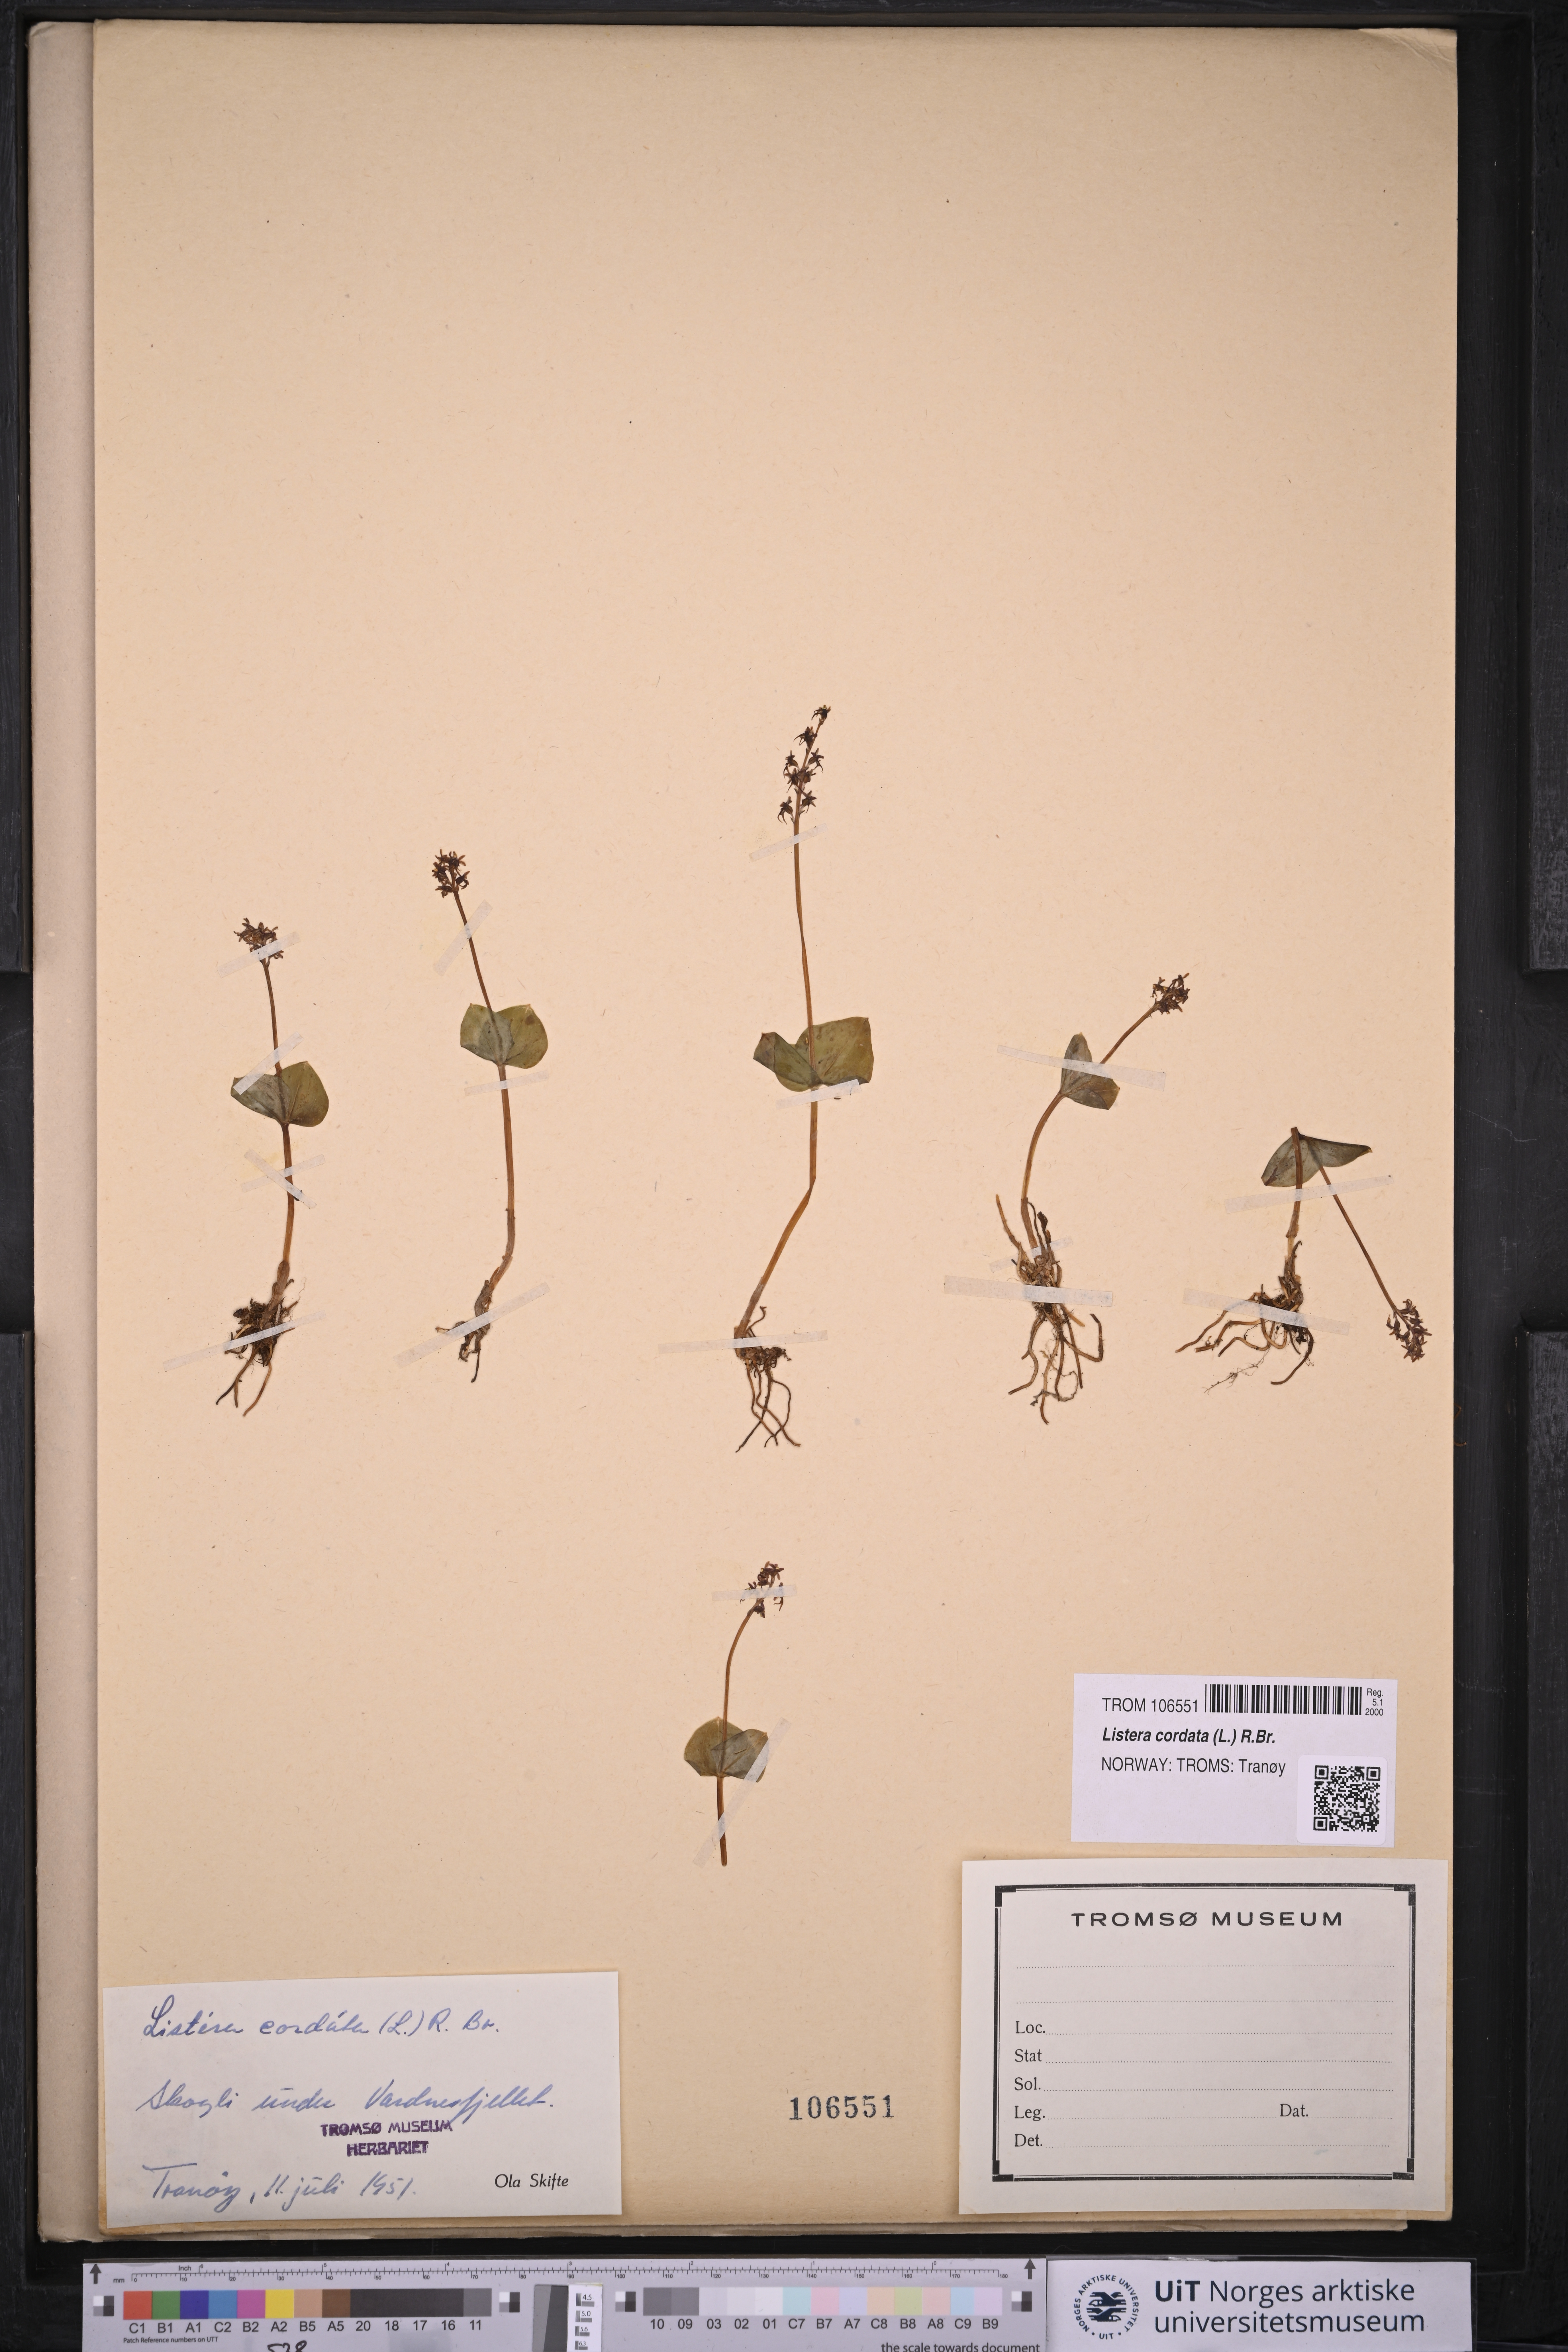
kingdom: Plantae
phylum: Tracheophyta
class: Liliopsida
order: Asparagales
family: Orchidaceae
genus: Neottia
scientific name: Neottia cordata
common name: Lesser twayblade
